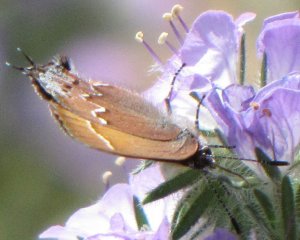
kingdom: Animalia
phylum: Arthropoda
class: Insecta
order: Lepidoptera
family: Lycaenidae
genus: Mitoura
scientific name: Mitoura nelsoni
